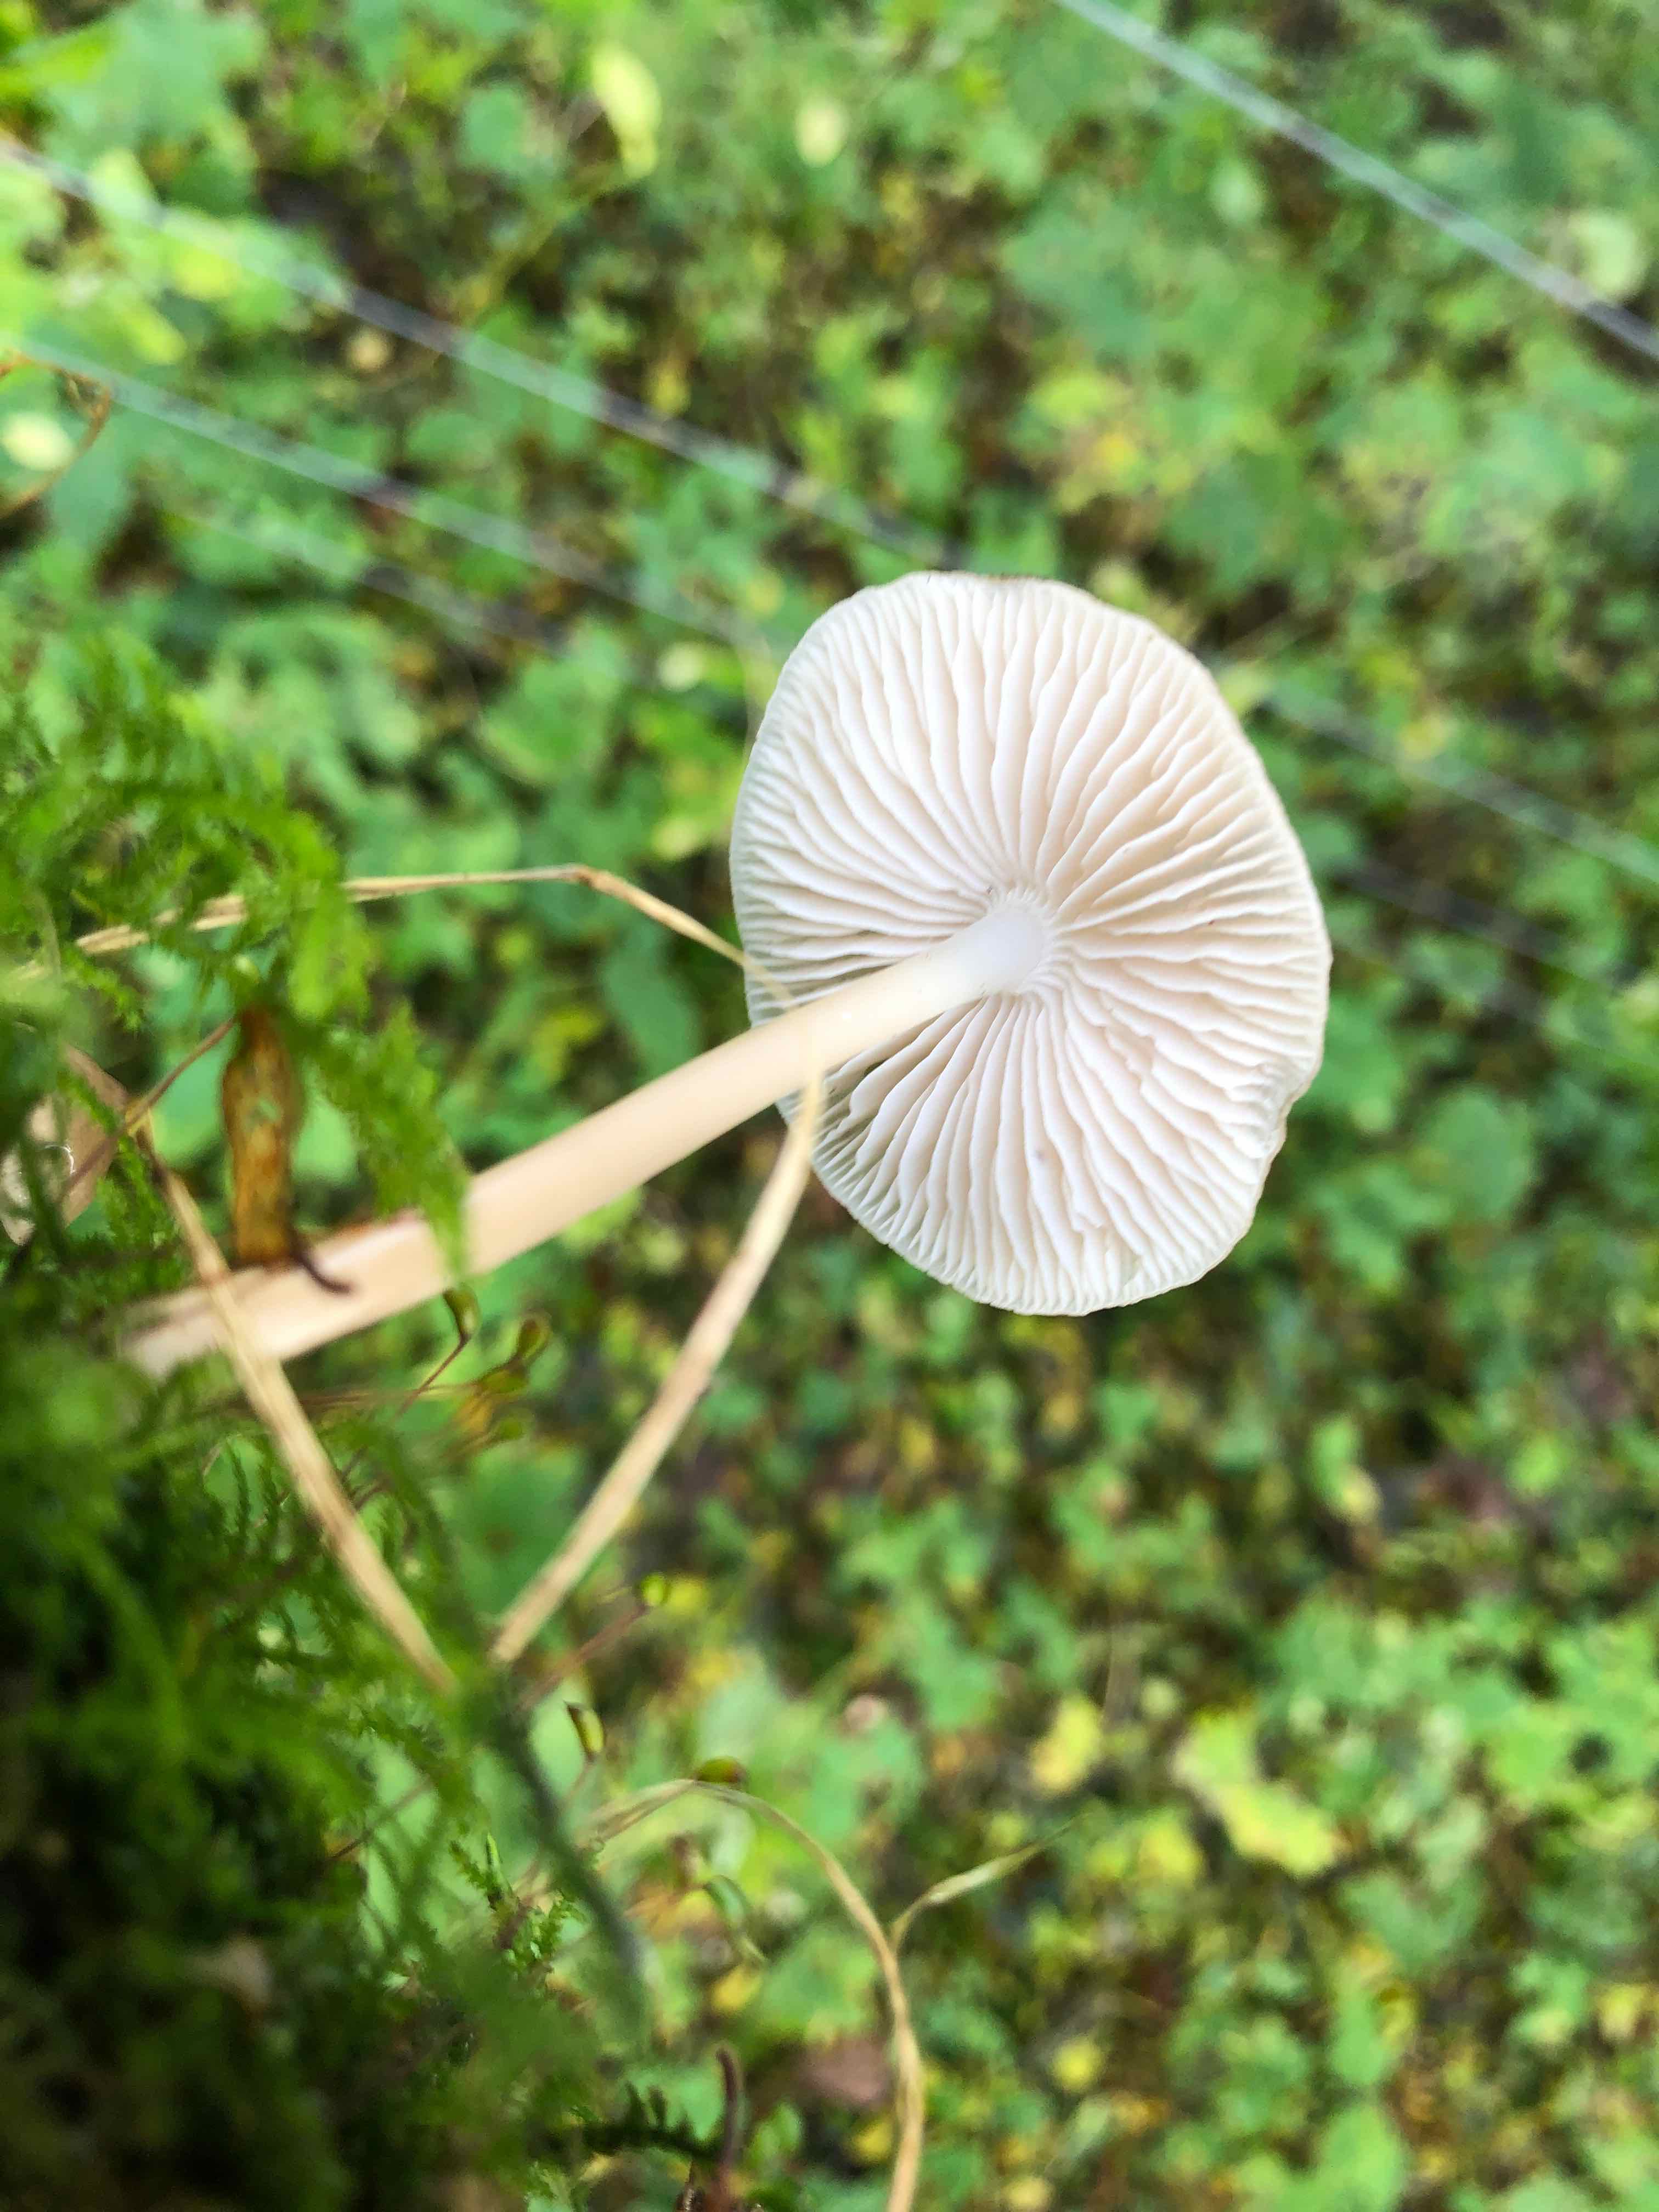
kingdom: Fungi
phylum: Basidiomycota
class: Agaricomycetes
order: Agaricales
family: Mycenaceae
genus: Mycena
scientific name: Mycena galericulata
